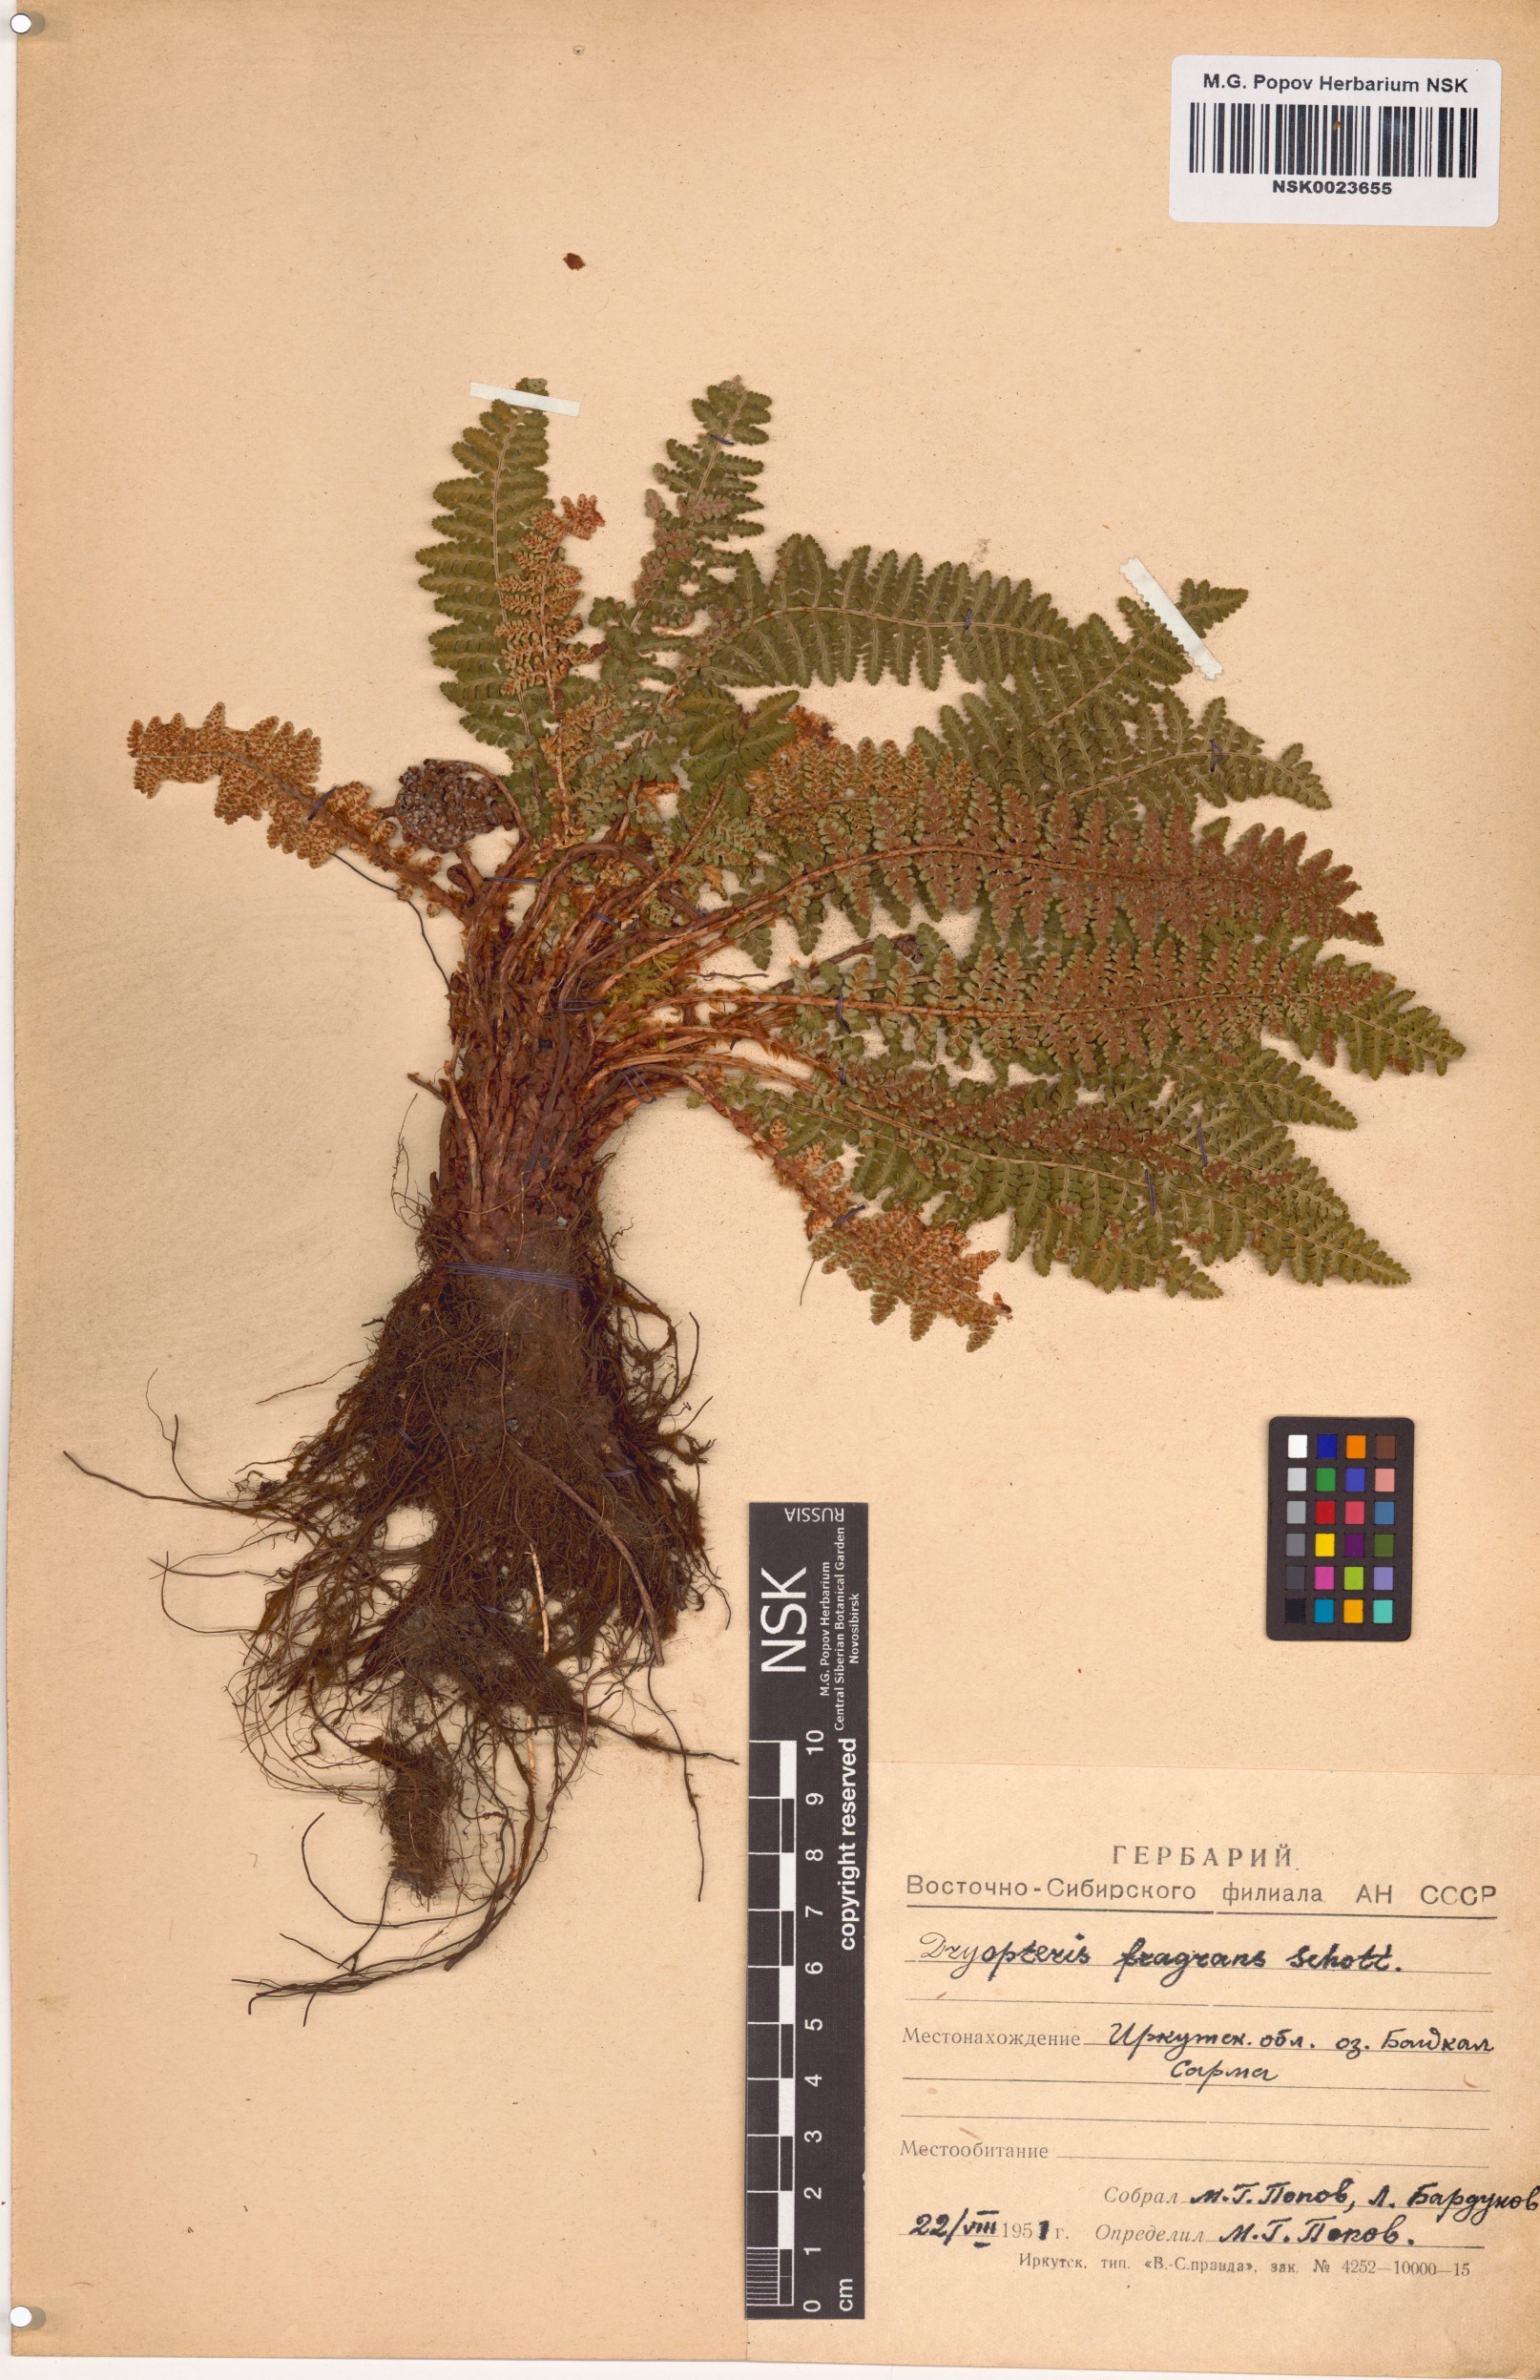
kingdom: Plantae
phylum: Tracheophyta
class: Polypodiopsida
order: Polypodiales
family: Dryopteridaceae
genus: Dryopteris
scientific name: Dryopteris fragrans
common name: Fragrant wood fern
